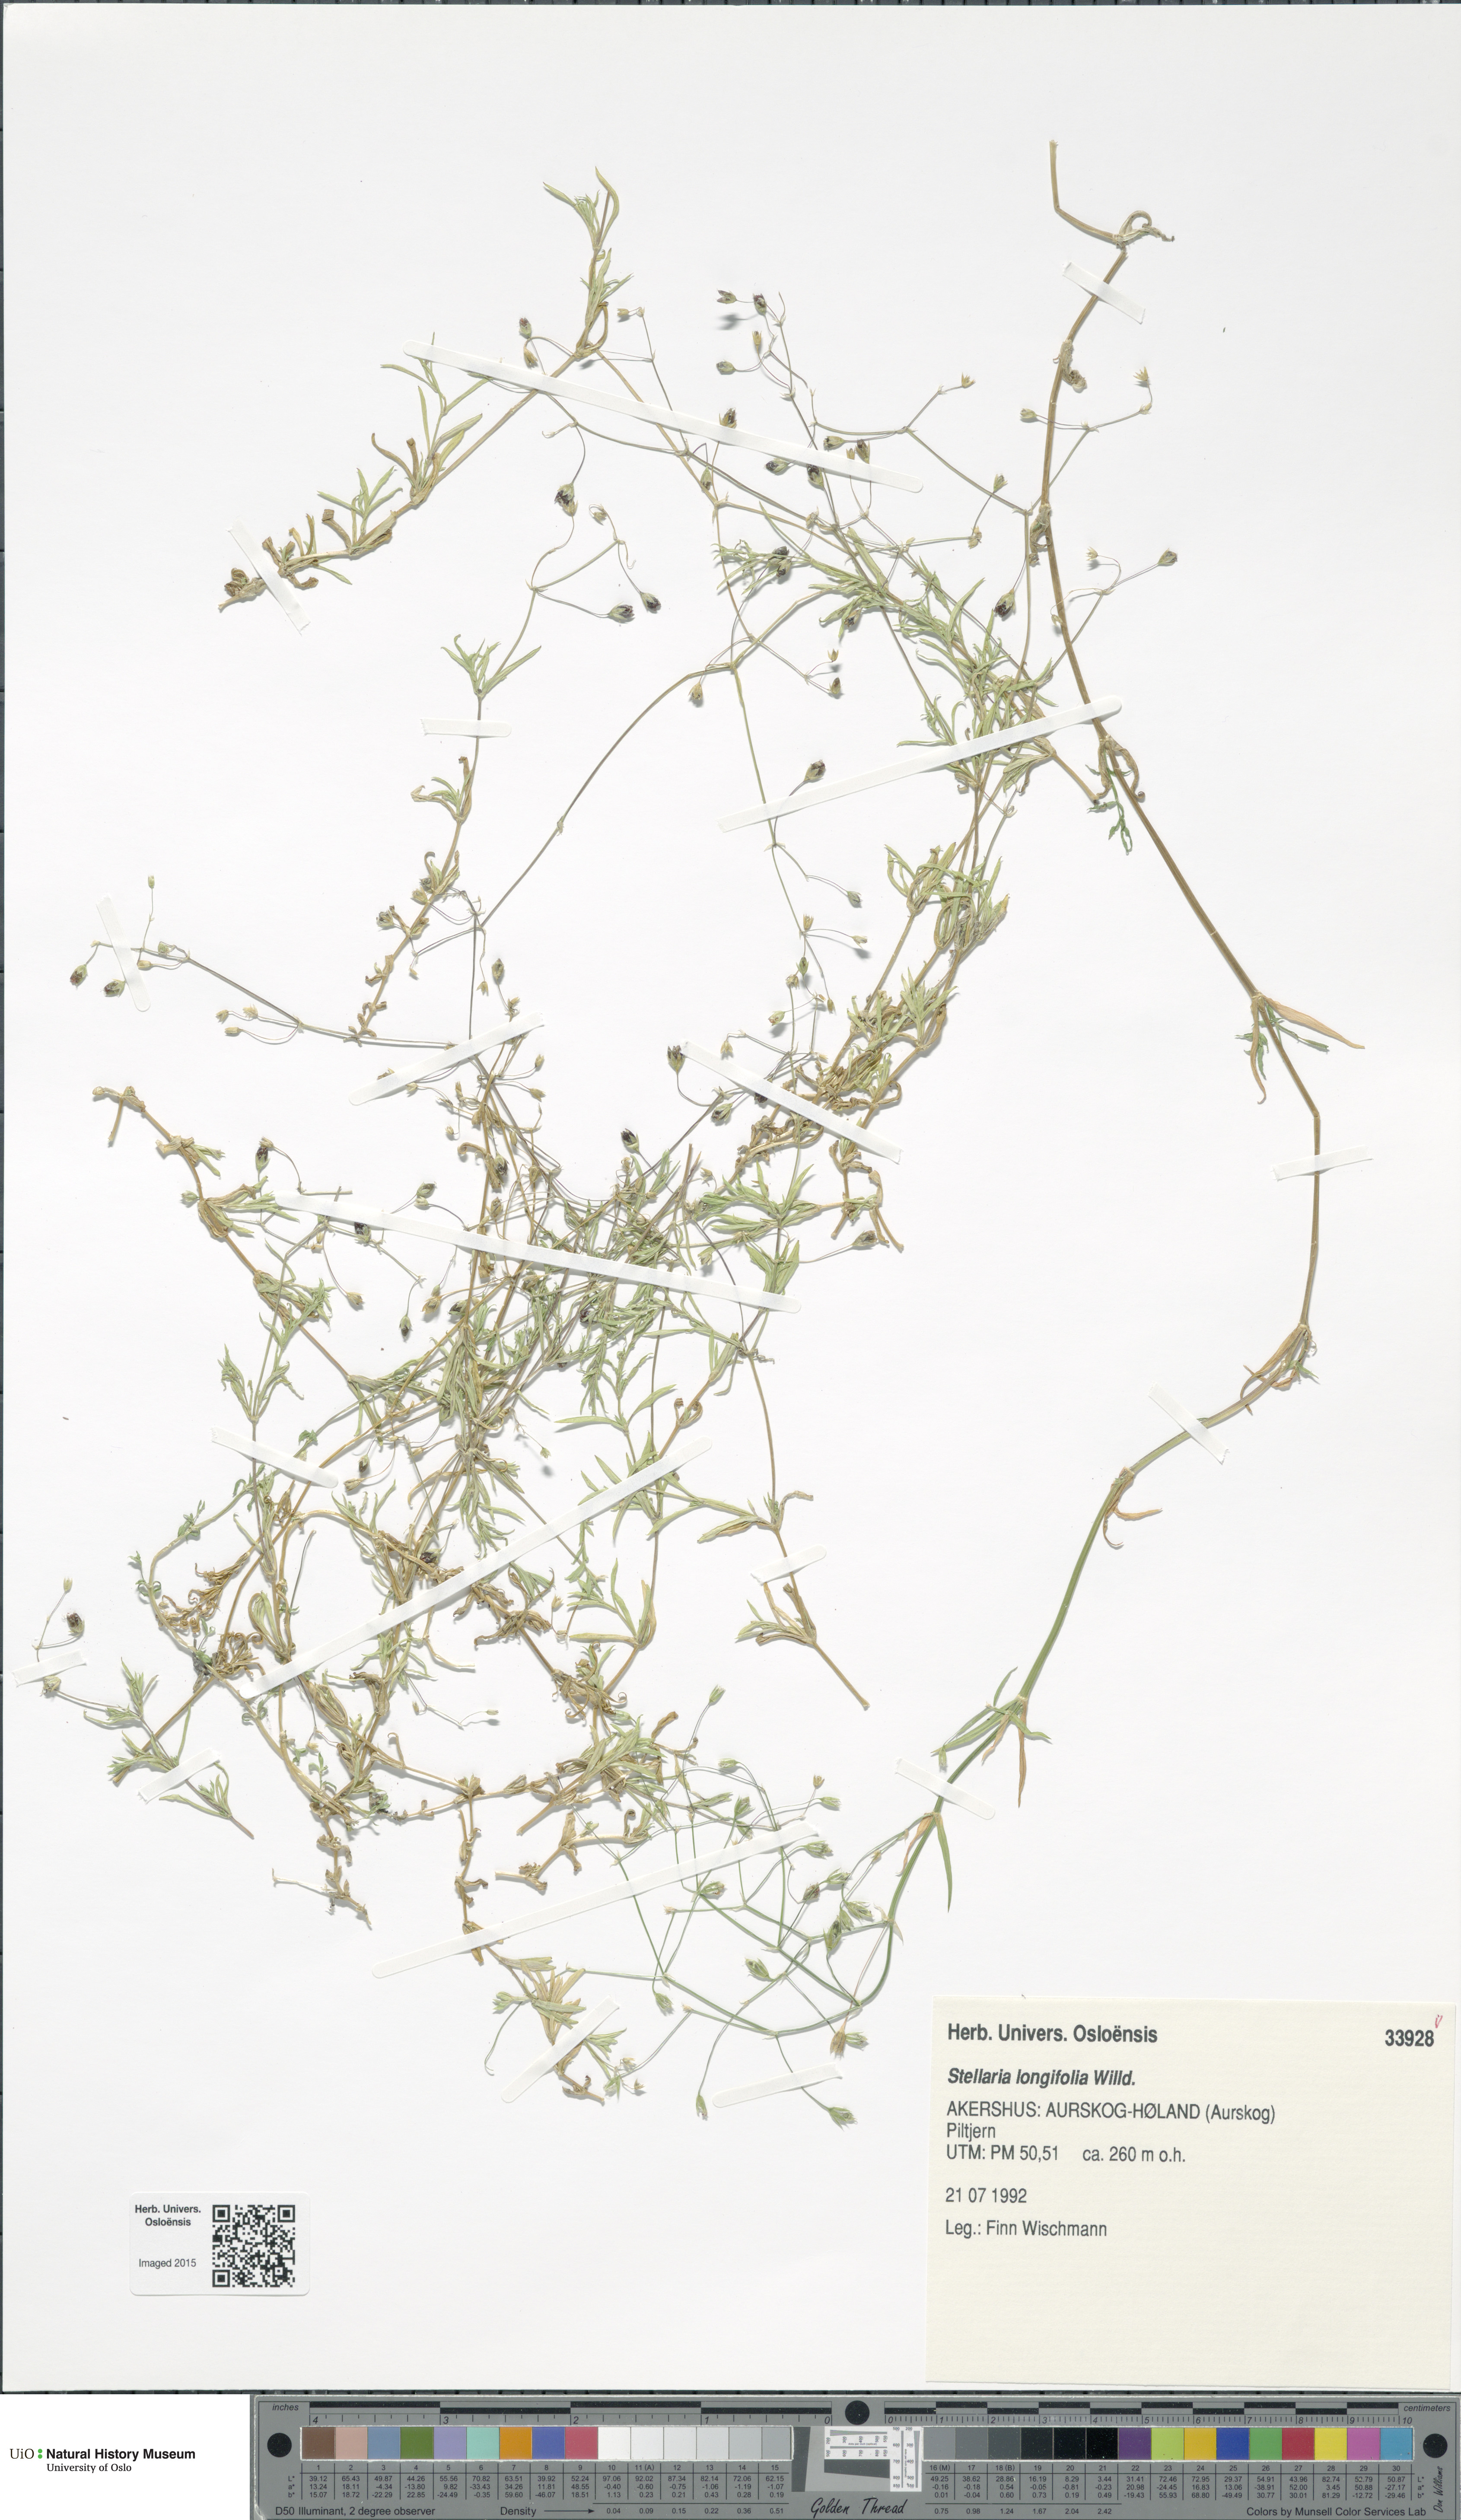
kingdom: Plantae
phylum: Tracheophyta
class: Magnoliopsida
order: Caryophyllales
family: Caryophyllaceae
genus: Stellaria
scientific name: Stellaria longifolia
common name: Long-leaved chickweed
